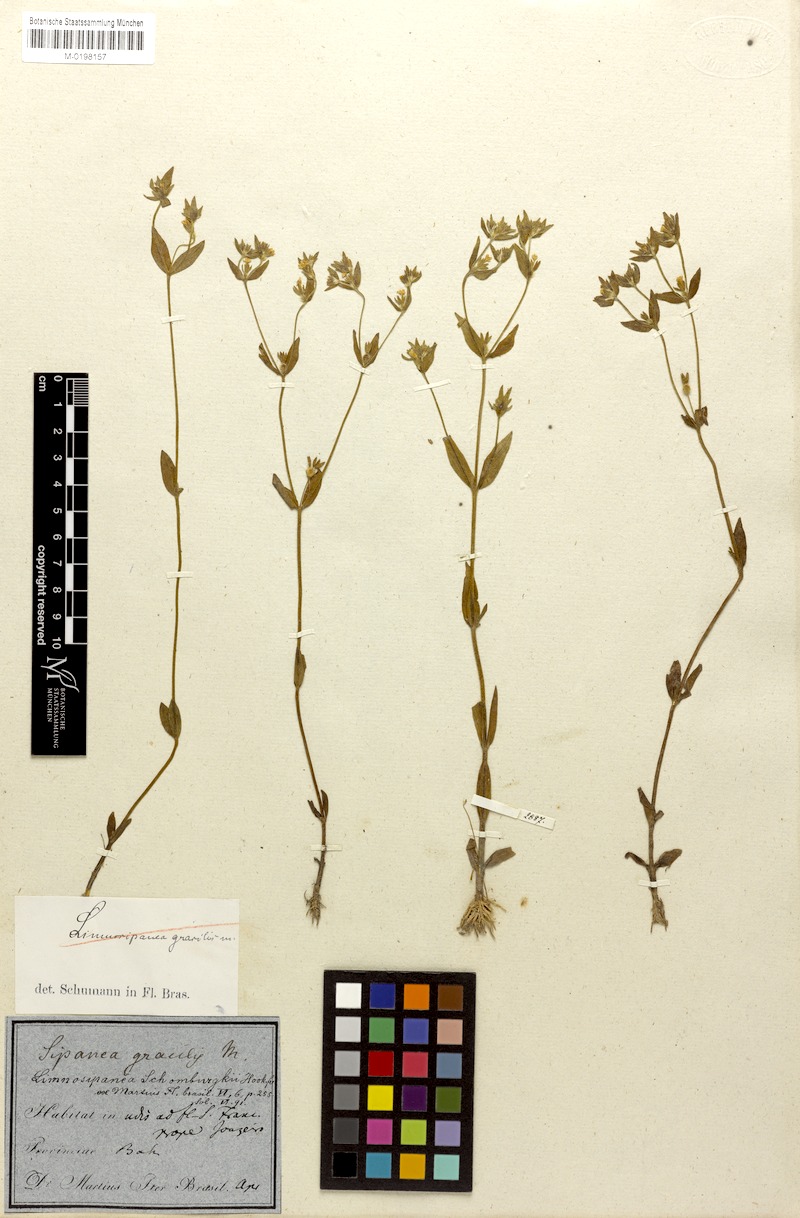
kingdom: Plantae
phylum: Tracheophyta
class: Magnoliopsida
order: Gentianales
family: Rubiaceae
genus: Limnosipanea
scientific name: Limnosipanea palustris
